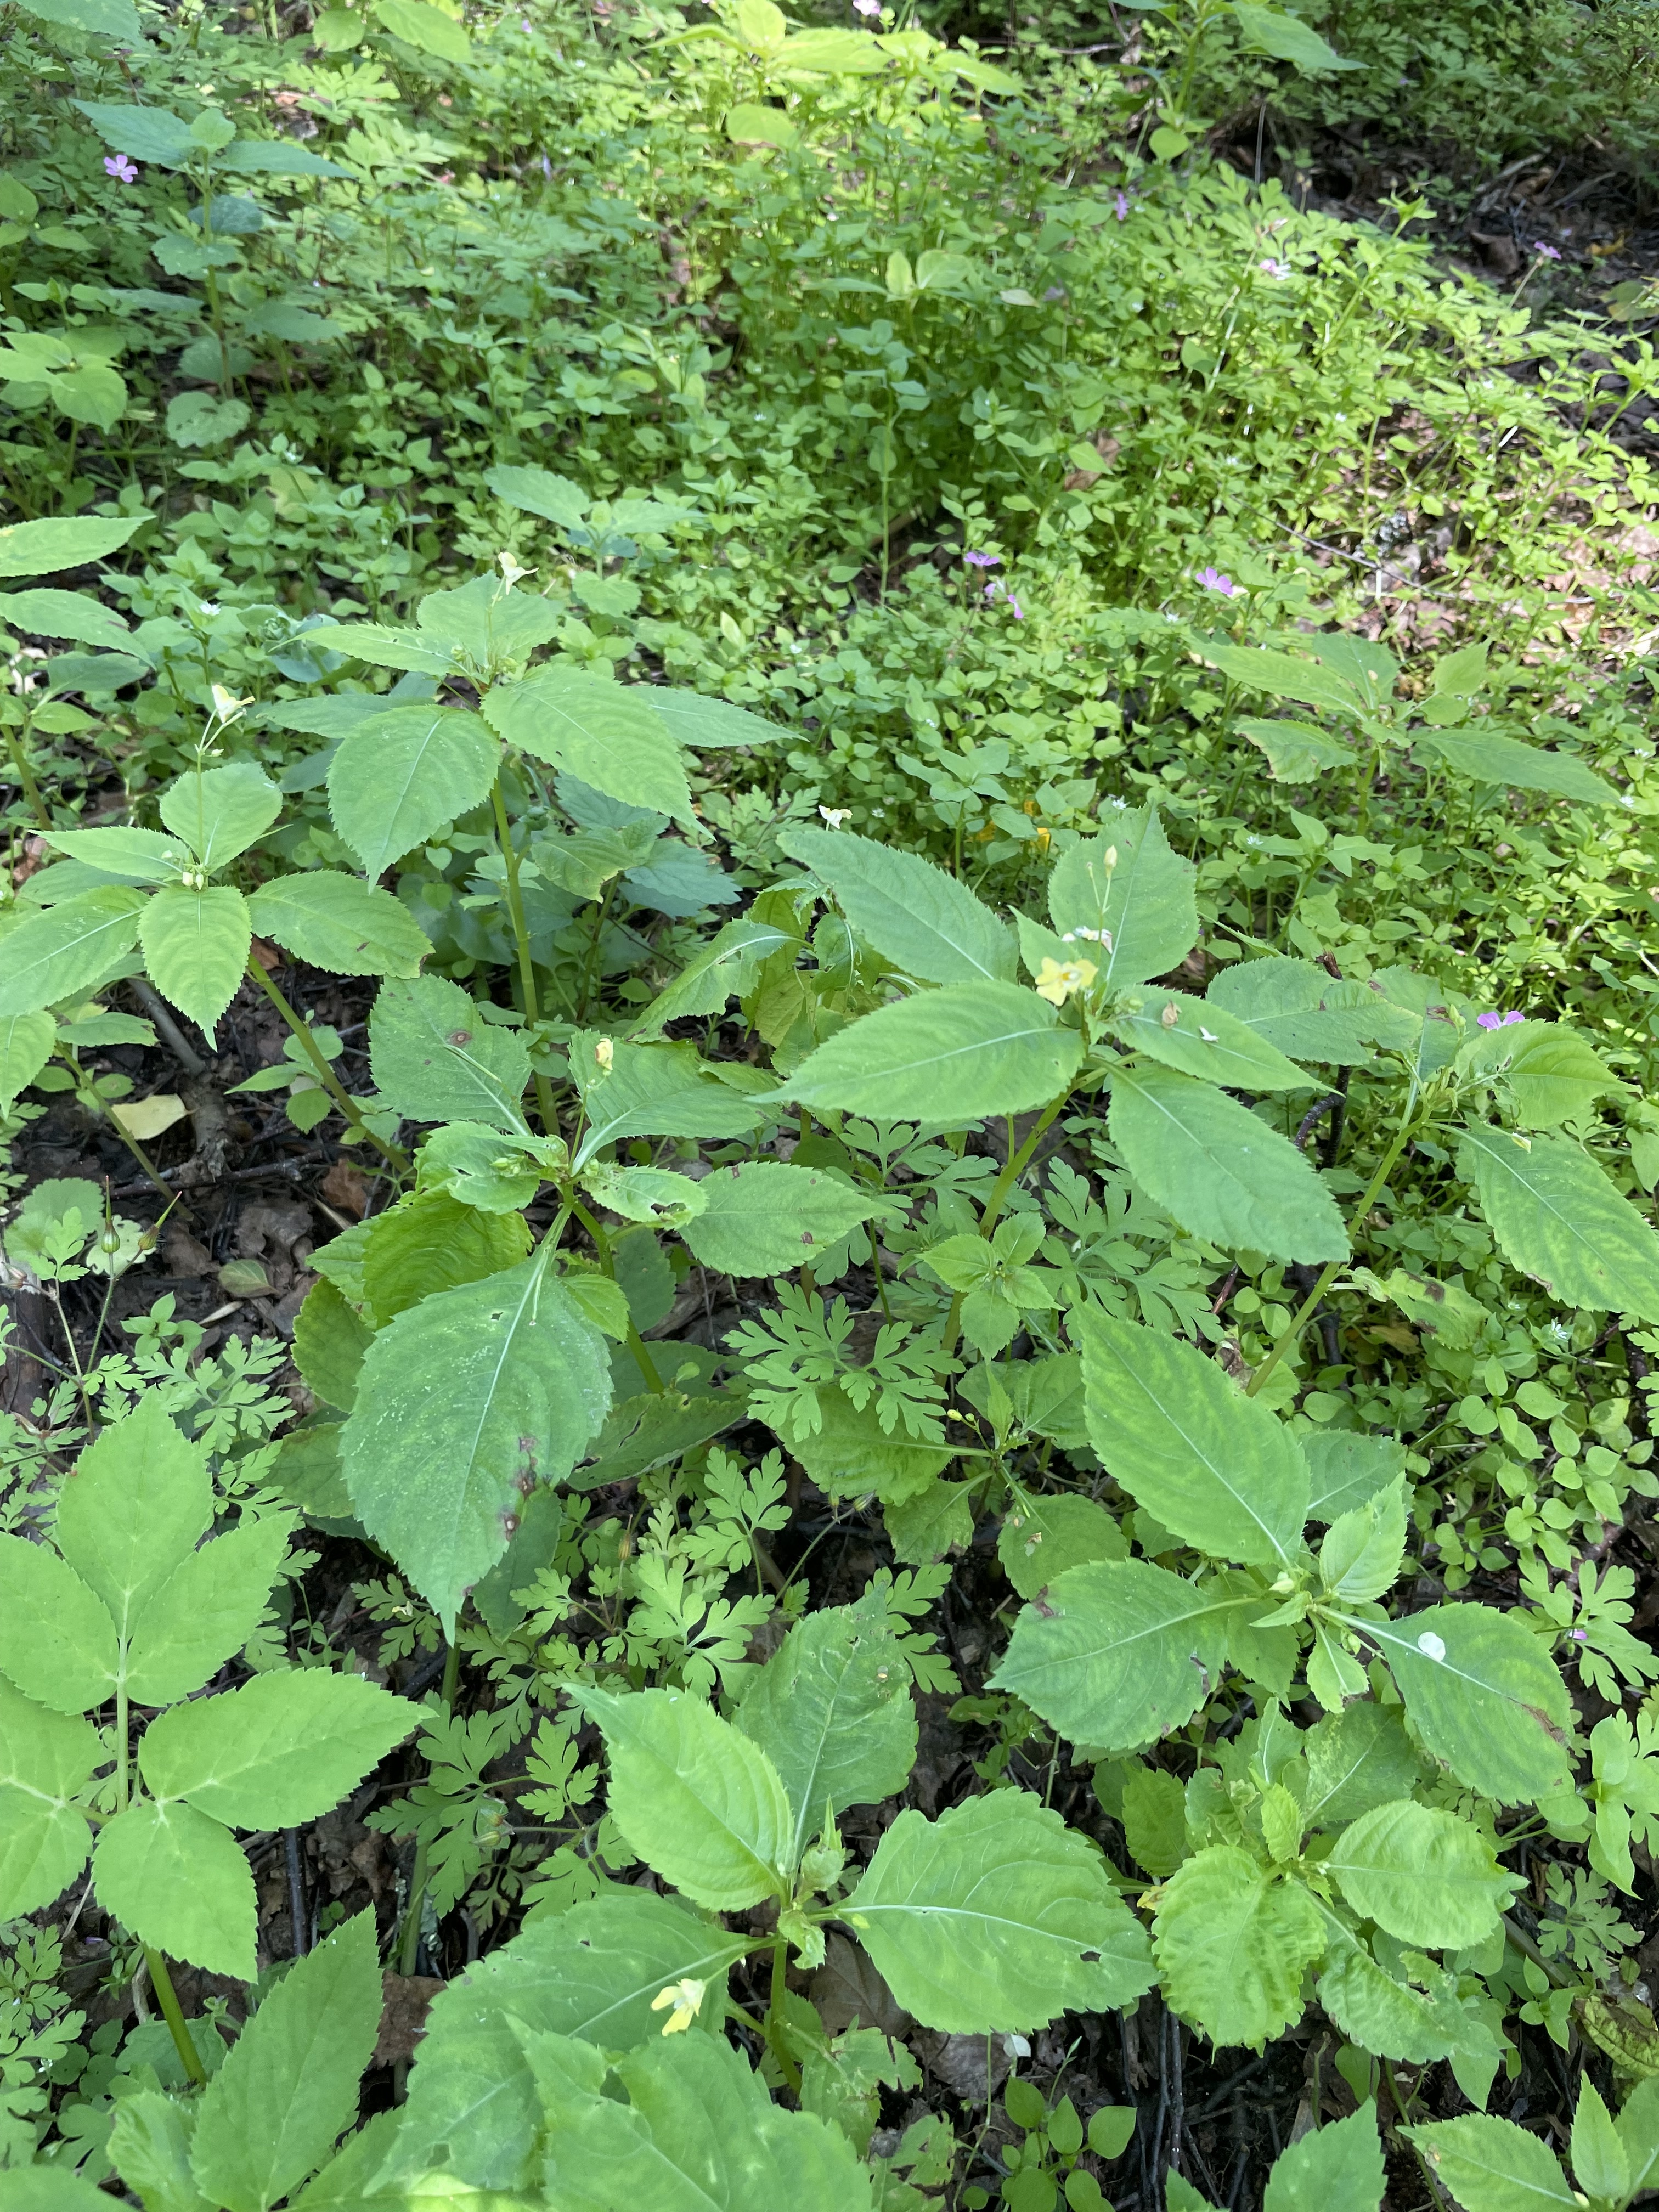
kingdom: Plantae
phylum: Tracheophyta
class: Magnoliopsida
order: Ericales
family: Balsaminaceae
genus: Impatiens
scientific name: Impatiens parviflora
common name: Small balsam
